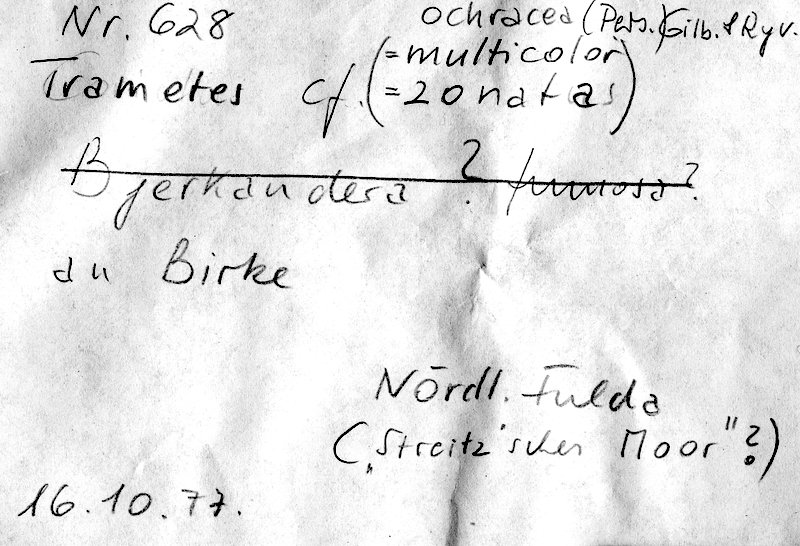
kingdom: Plantae
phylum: Tracheophyta
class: Magnoliopsida
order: Fagales
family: Betulaceae
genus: Betula
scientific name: Betula
